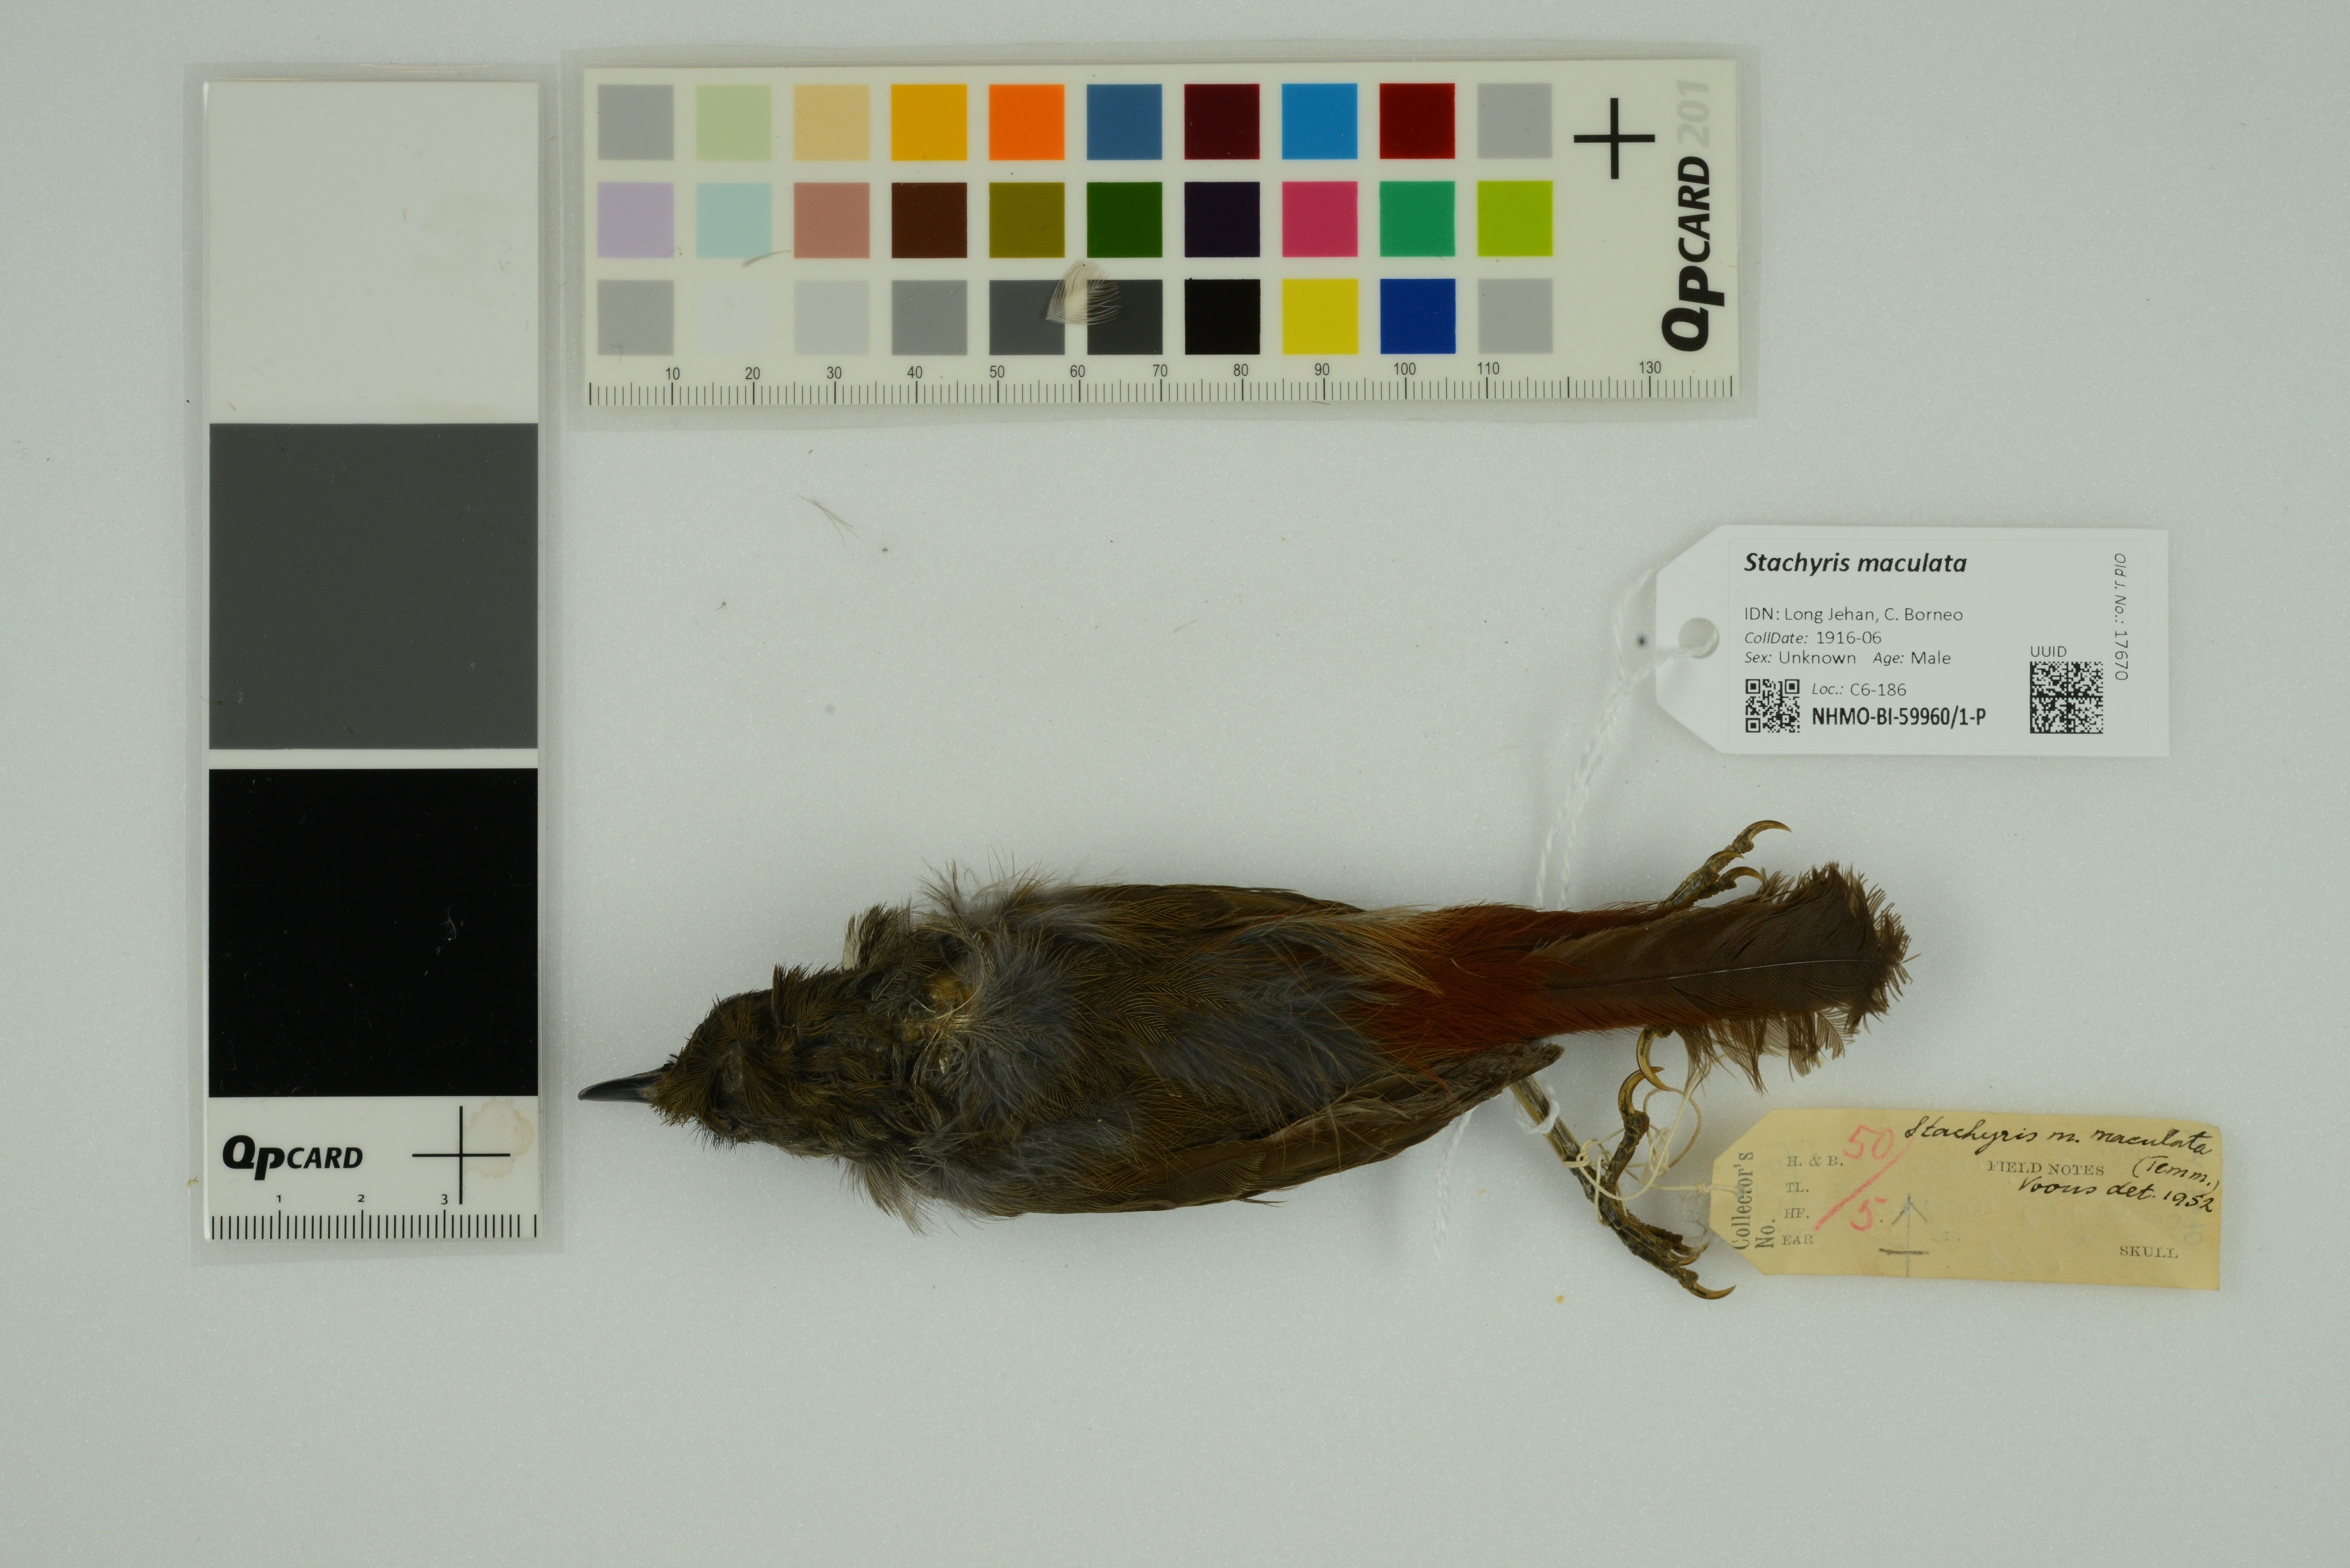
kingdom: Animalia
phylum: Chordata
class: Aves
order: Passeriformes
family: Timaliidae
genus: Stachyris
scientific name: Stachyris maculata
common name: Chestnut-rumped babbler
